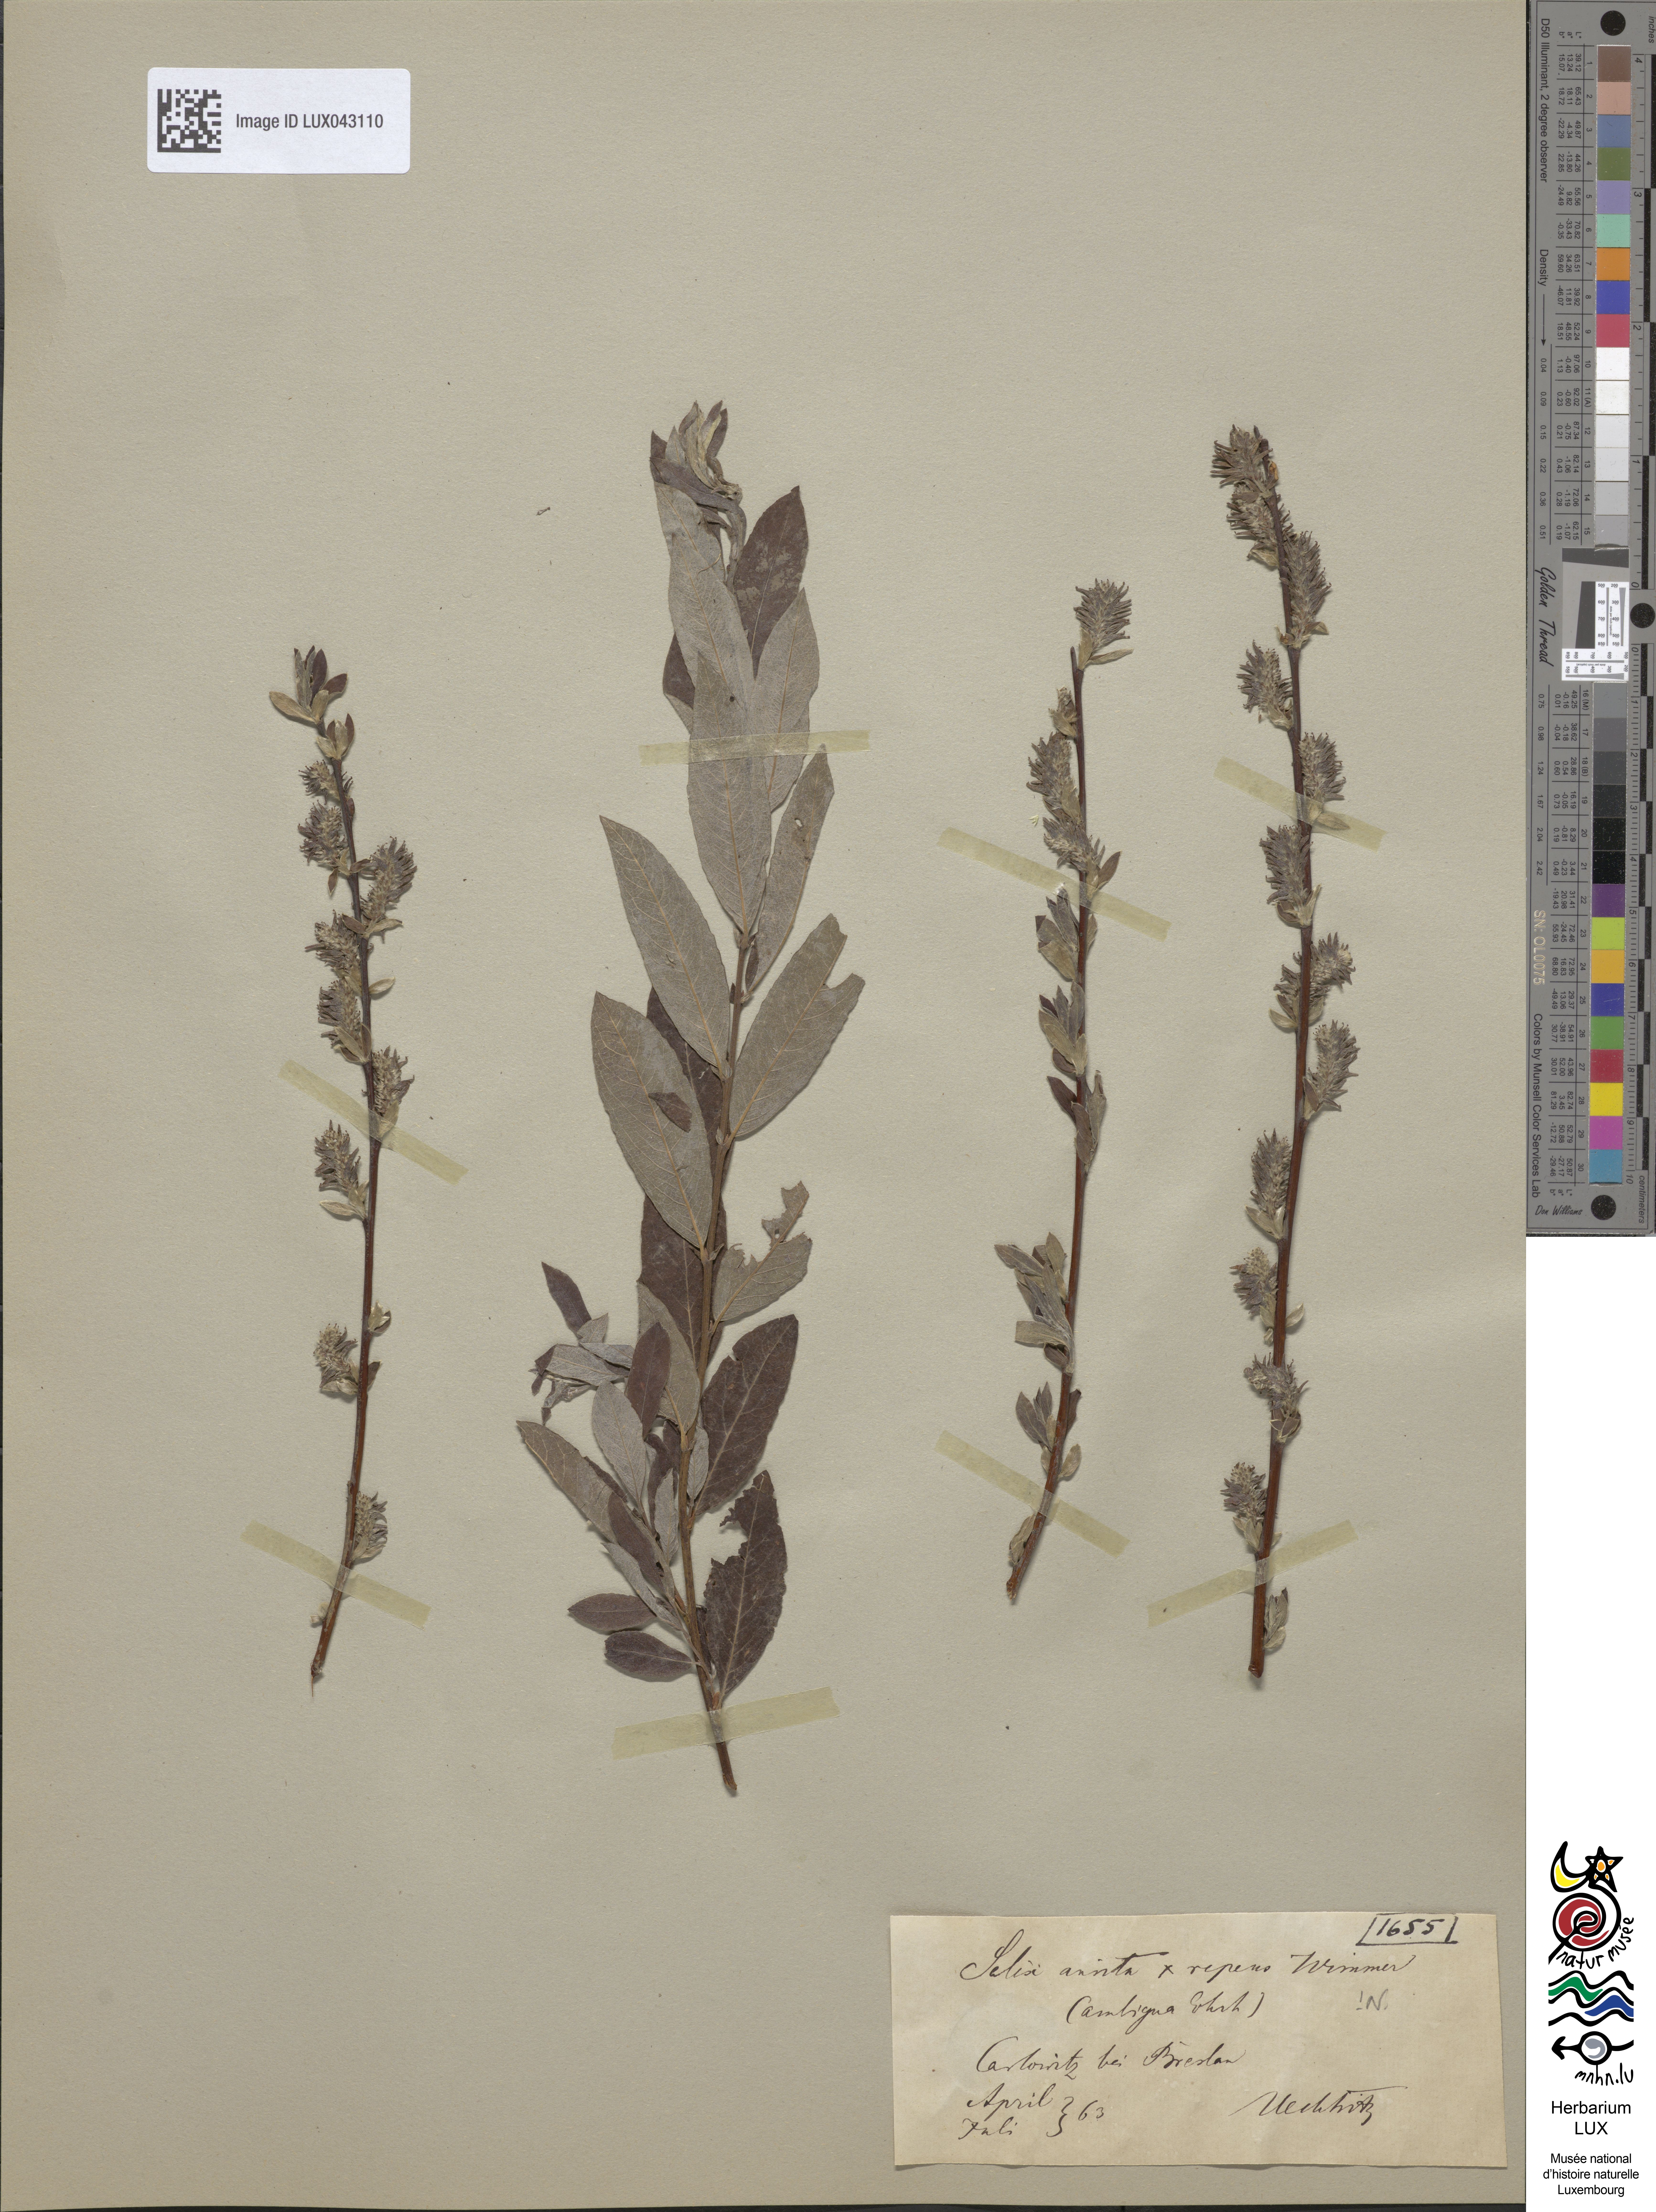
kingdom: Plantae
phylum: Tracheophyta
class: Magnoliopsida
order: Malpighiales
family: Salicaceae
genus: Salix
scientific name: Salix
